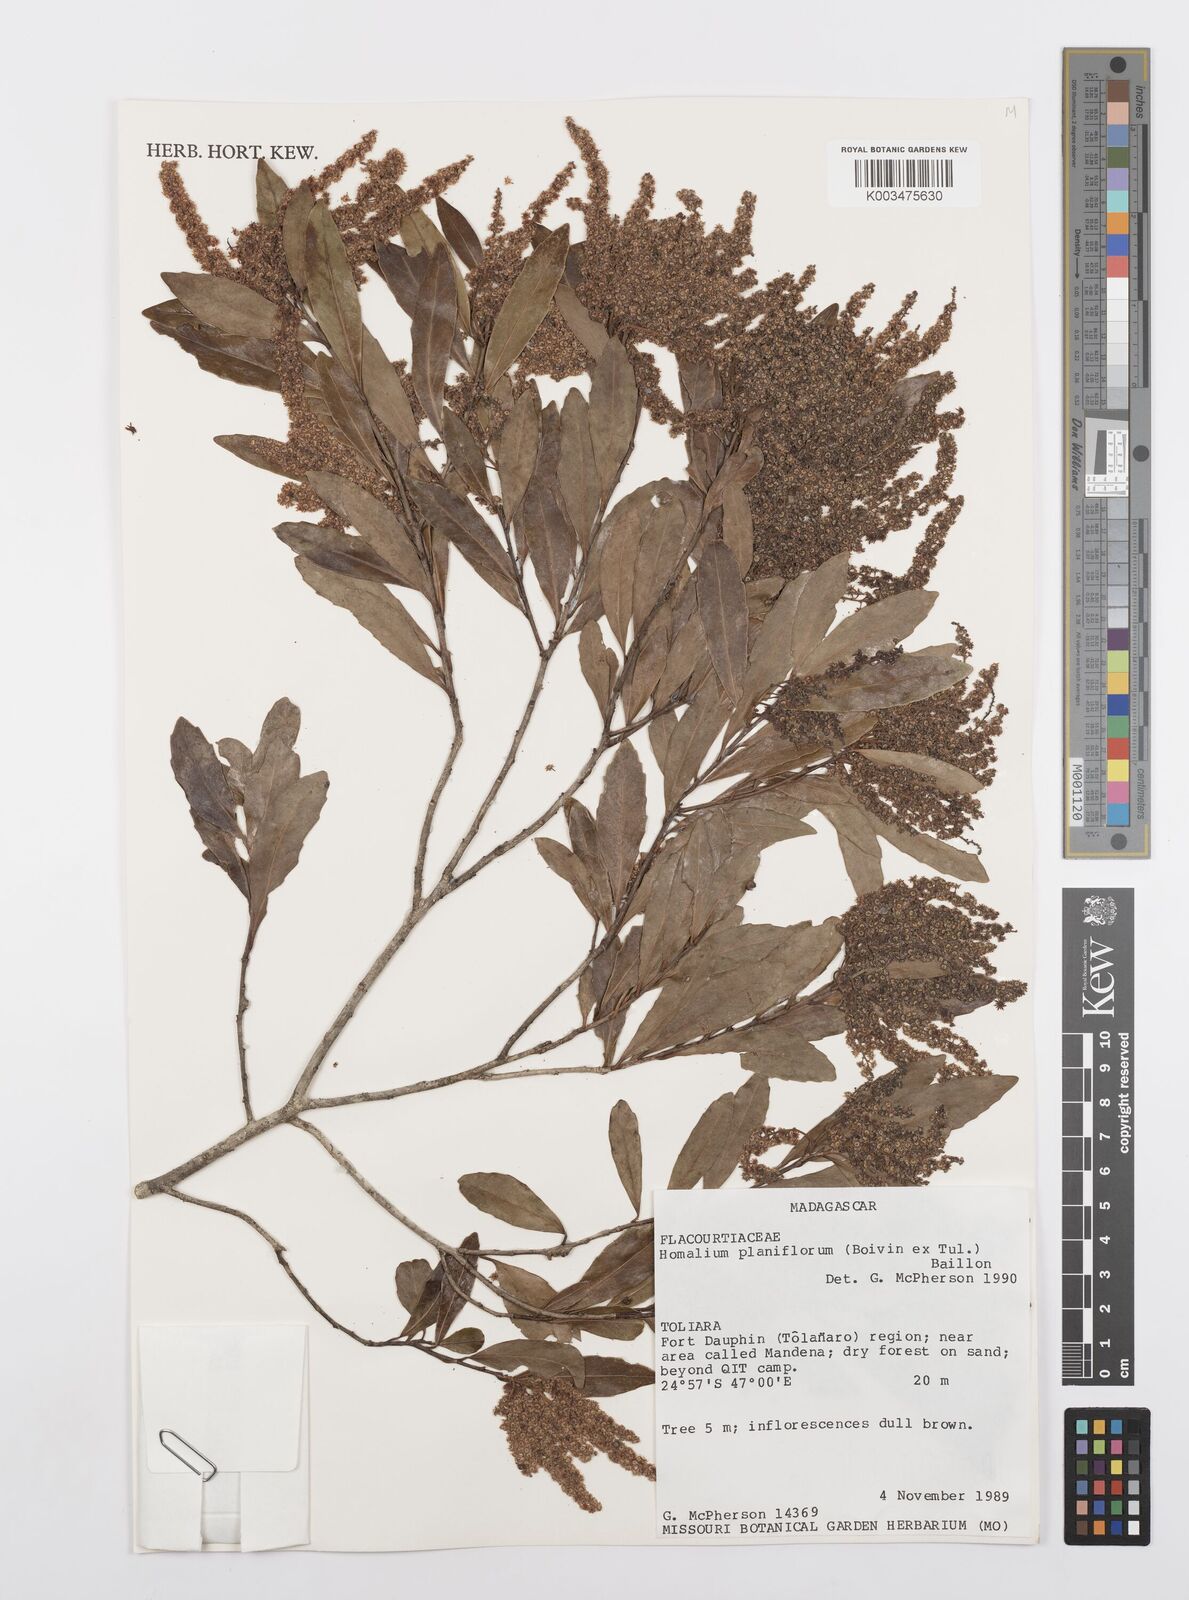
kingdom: Plantae
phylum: Tracheophyta
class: Magnoliopsida
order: Malpighiales
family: Salicaceae
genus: Homalium
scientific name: Homalium planiflorum
